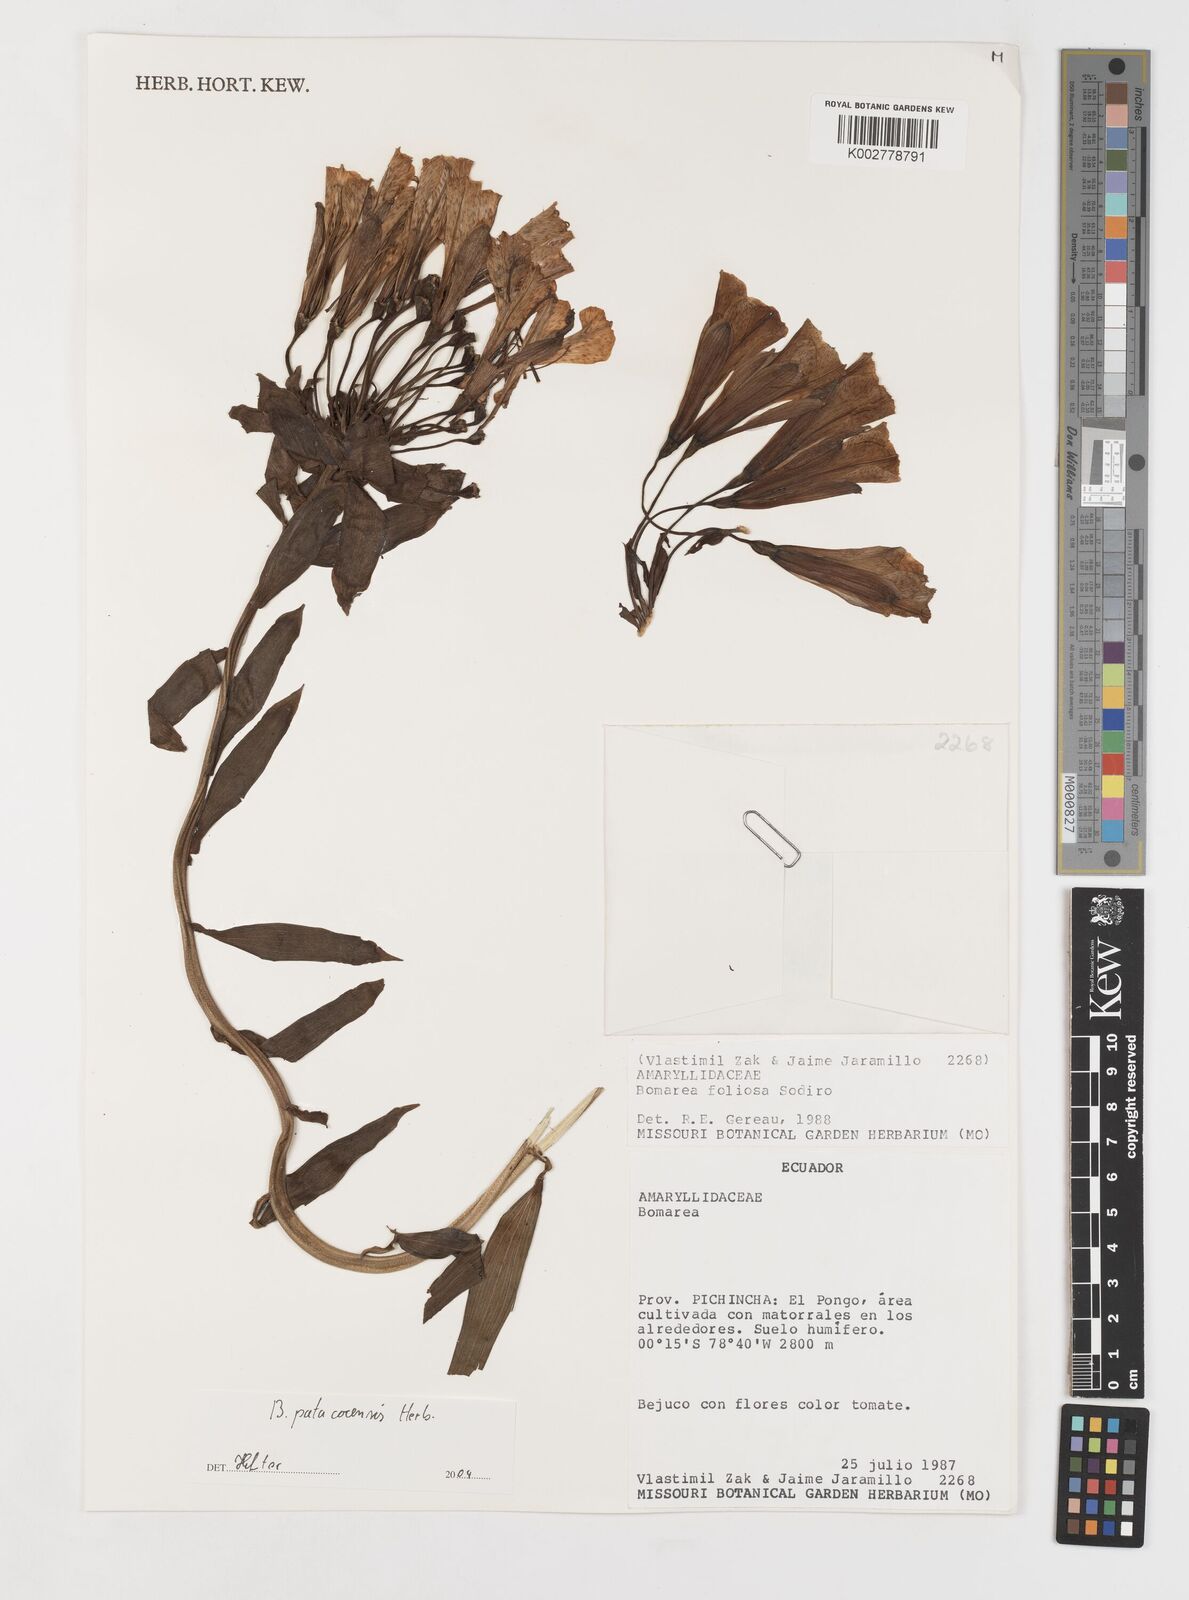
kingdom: Plantae
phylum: Tracheophyta
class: Liliopsida
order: Liliales
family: Alstroemeriaceae
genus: Bomarea
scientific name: Bomarea patacocensis
